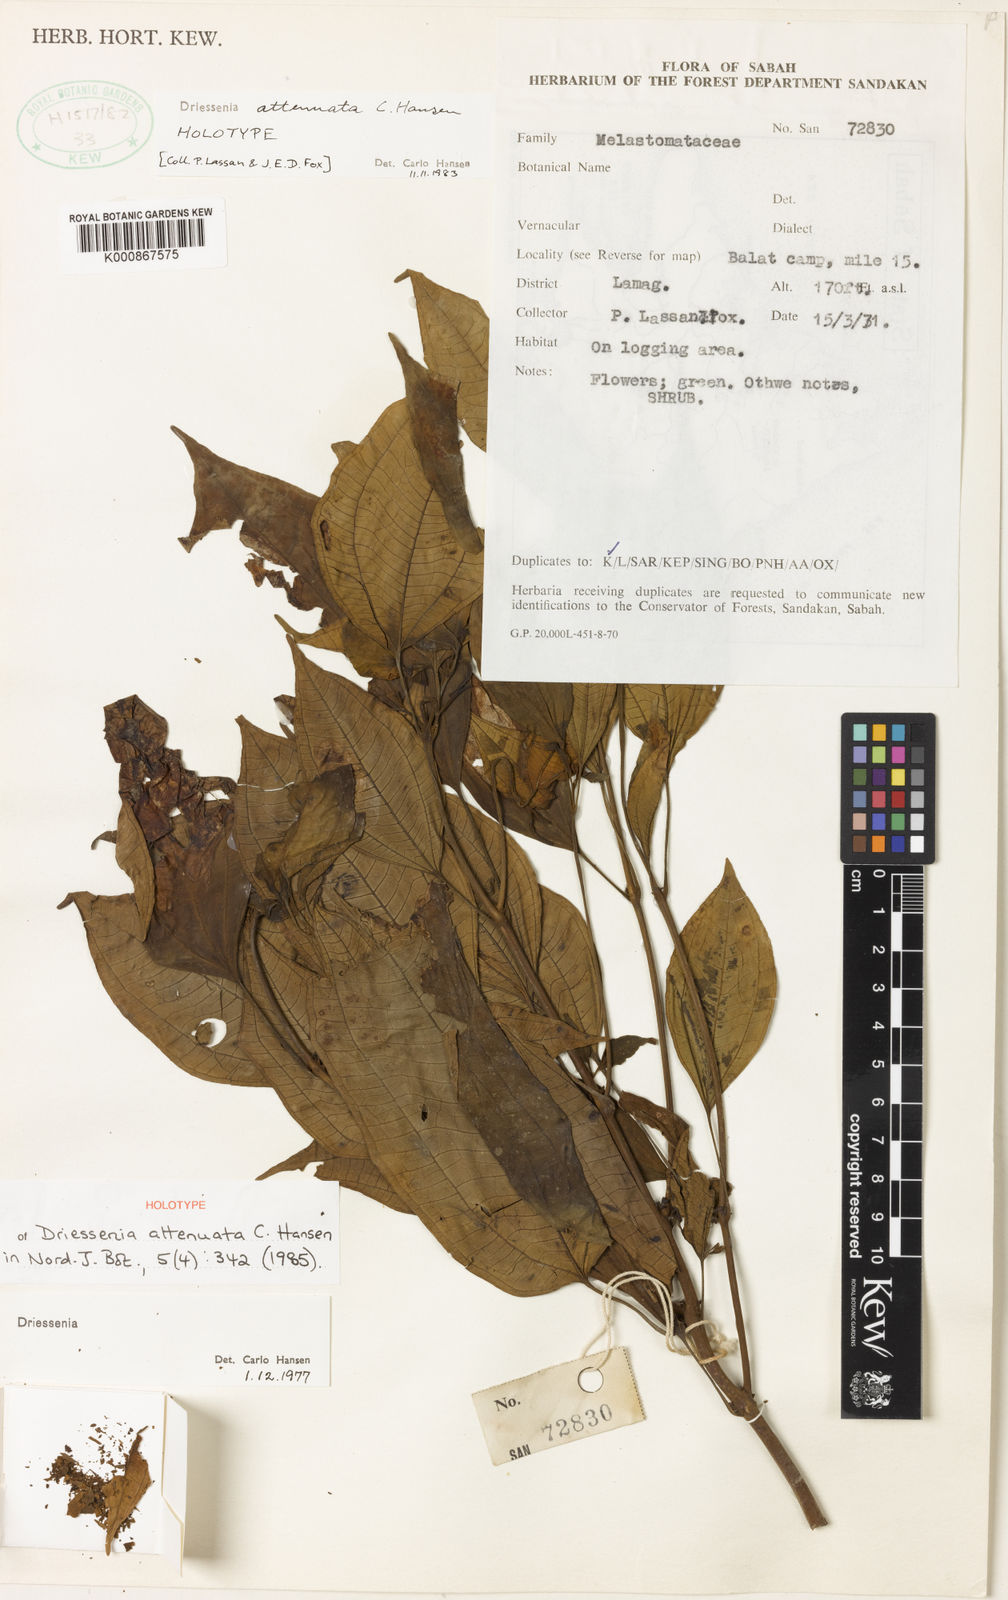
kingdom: Plantae
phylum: Tracheophyta
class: Magnoliopsida
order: Myrtales
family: Melastomataceae
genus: Driessenia
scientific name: Driessenia attenuata
